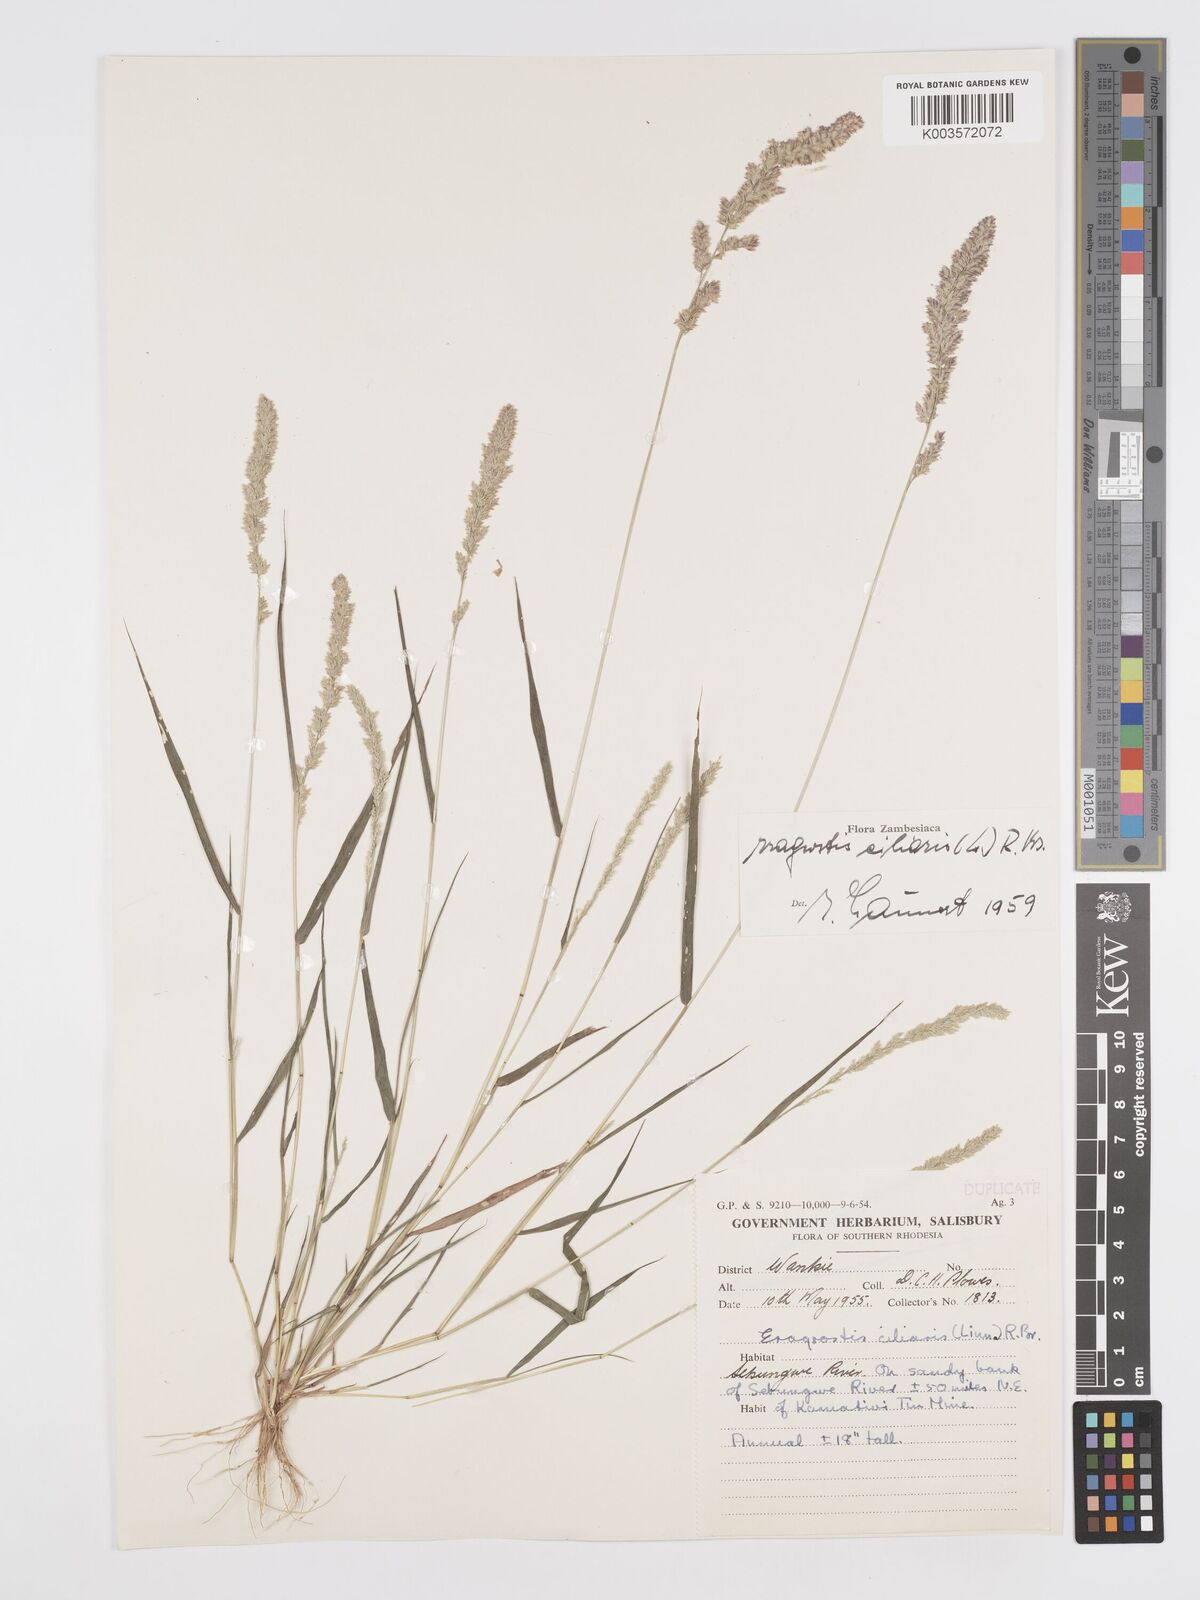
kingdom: Plantae
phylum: Tracheophyta
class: Liliopsida
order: Poales
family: Poaceae
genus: Eragrostis
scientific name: Eragrostis ciliaris
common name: Gophertail lovegrass
